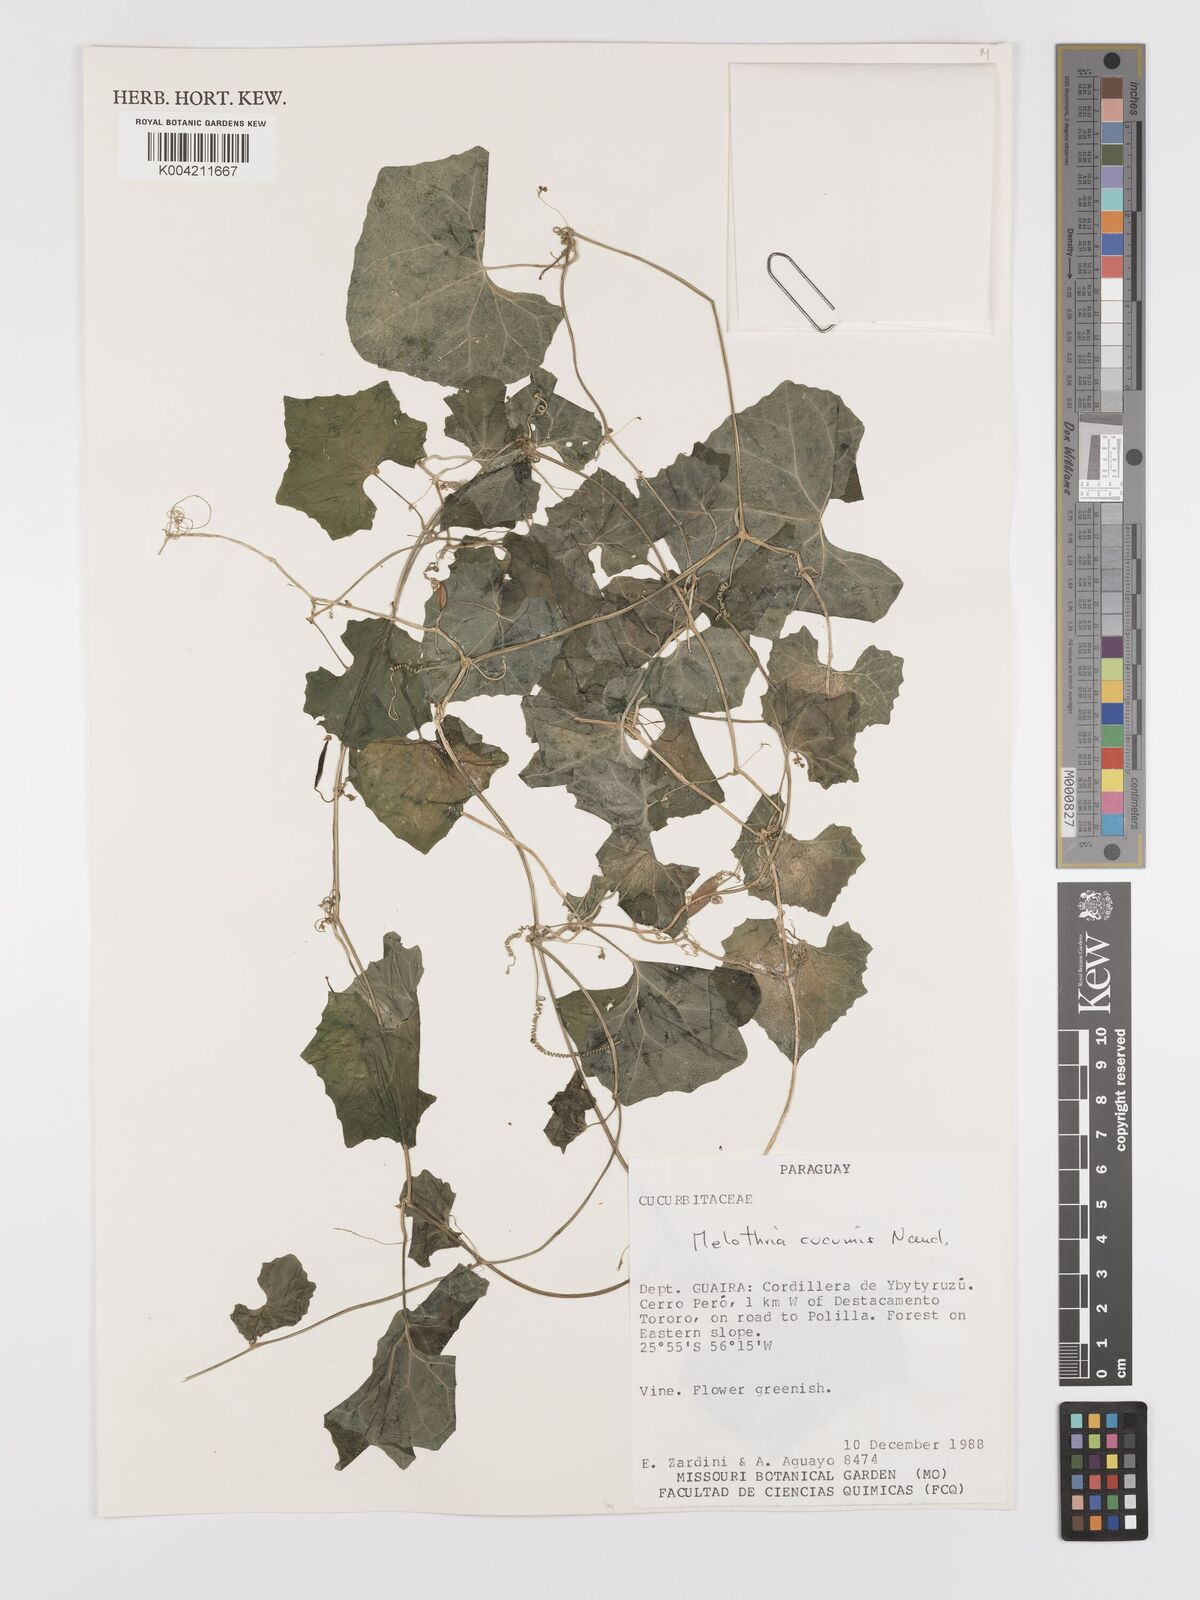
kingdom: Plantae
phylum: Tracheophyta
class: Magnoliopsida
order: Cucurbitales
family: Cucurbitaceae
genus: Melothria
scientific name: Melothria cucumis
